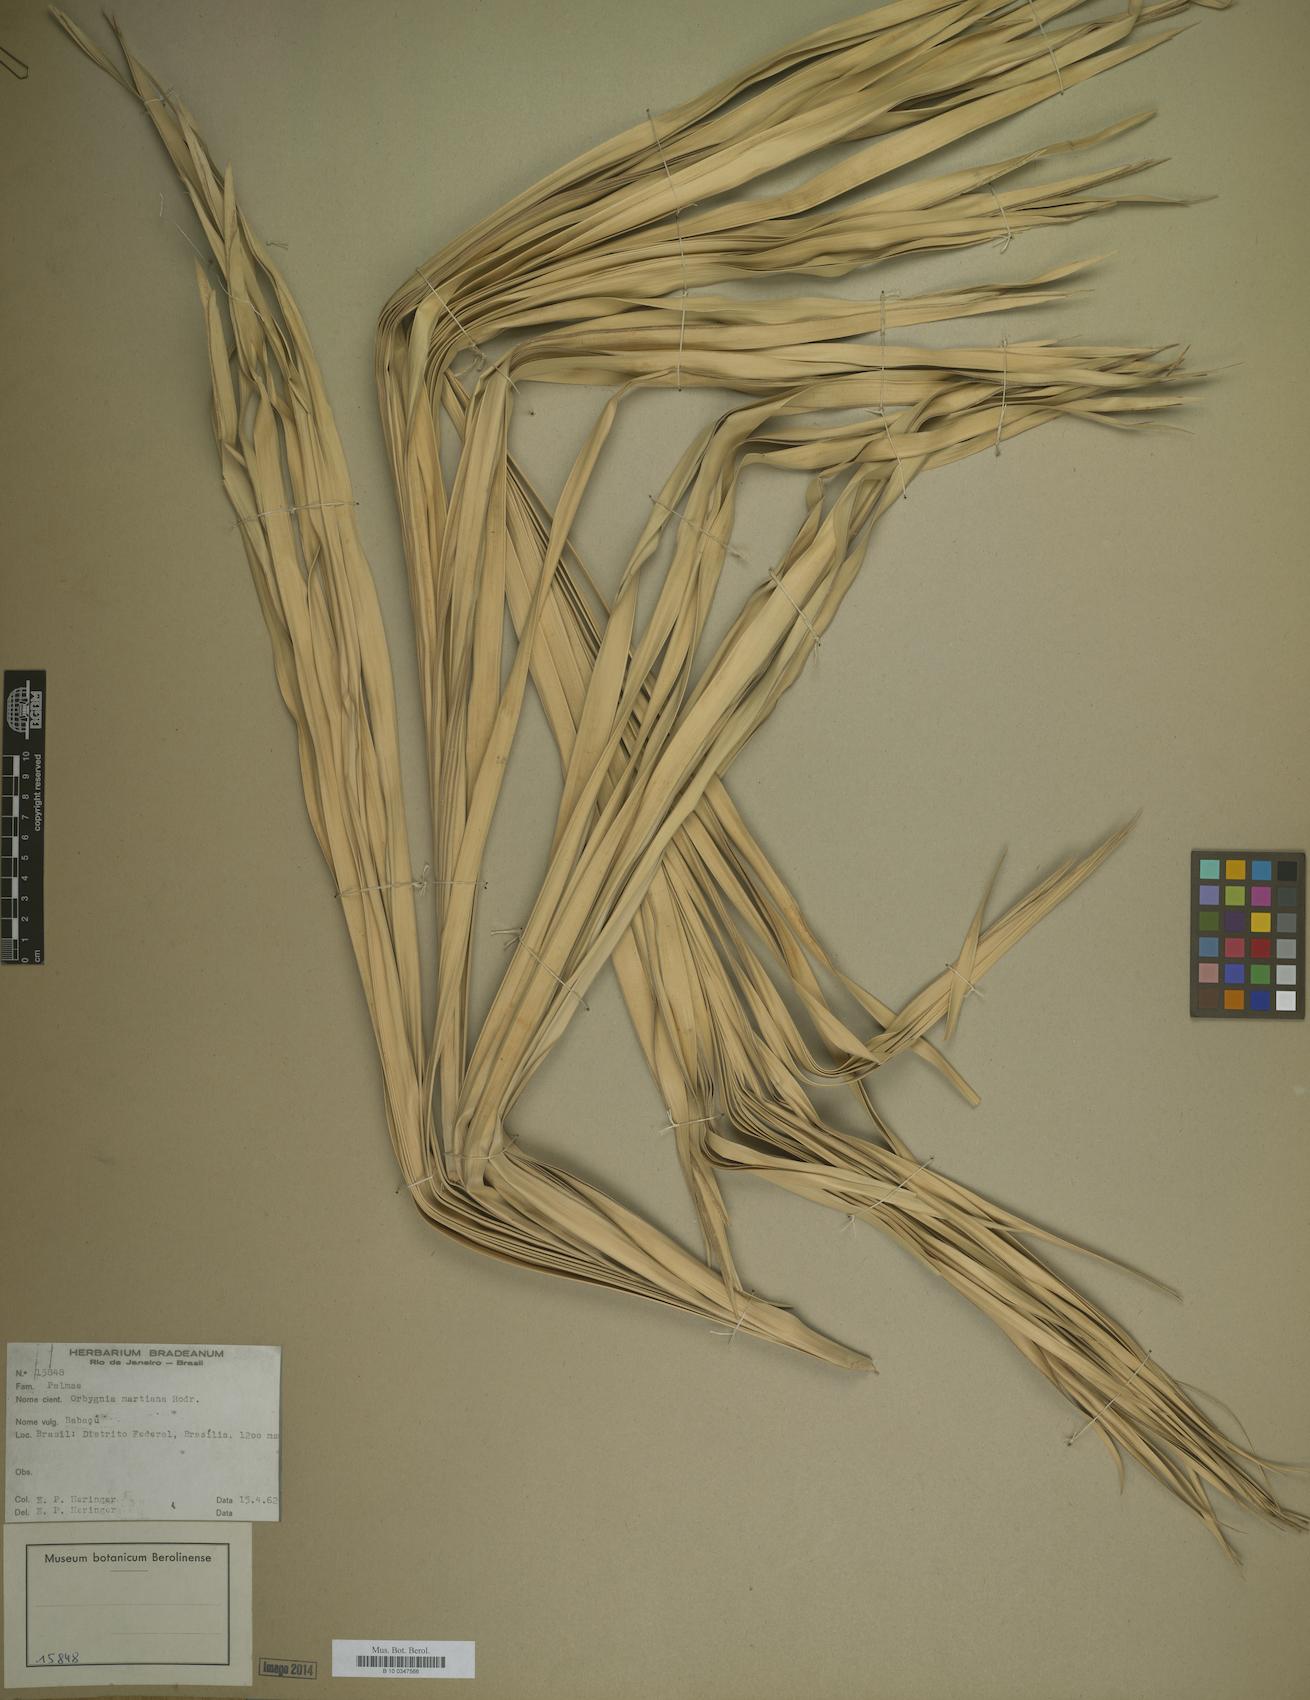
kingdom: Plantae
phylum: Tracheophyta
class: Liliopsida
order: Arecales
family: Arecaceae
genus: Attalea
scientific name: Attalea speciosa
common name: Babassu palm
